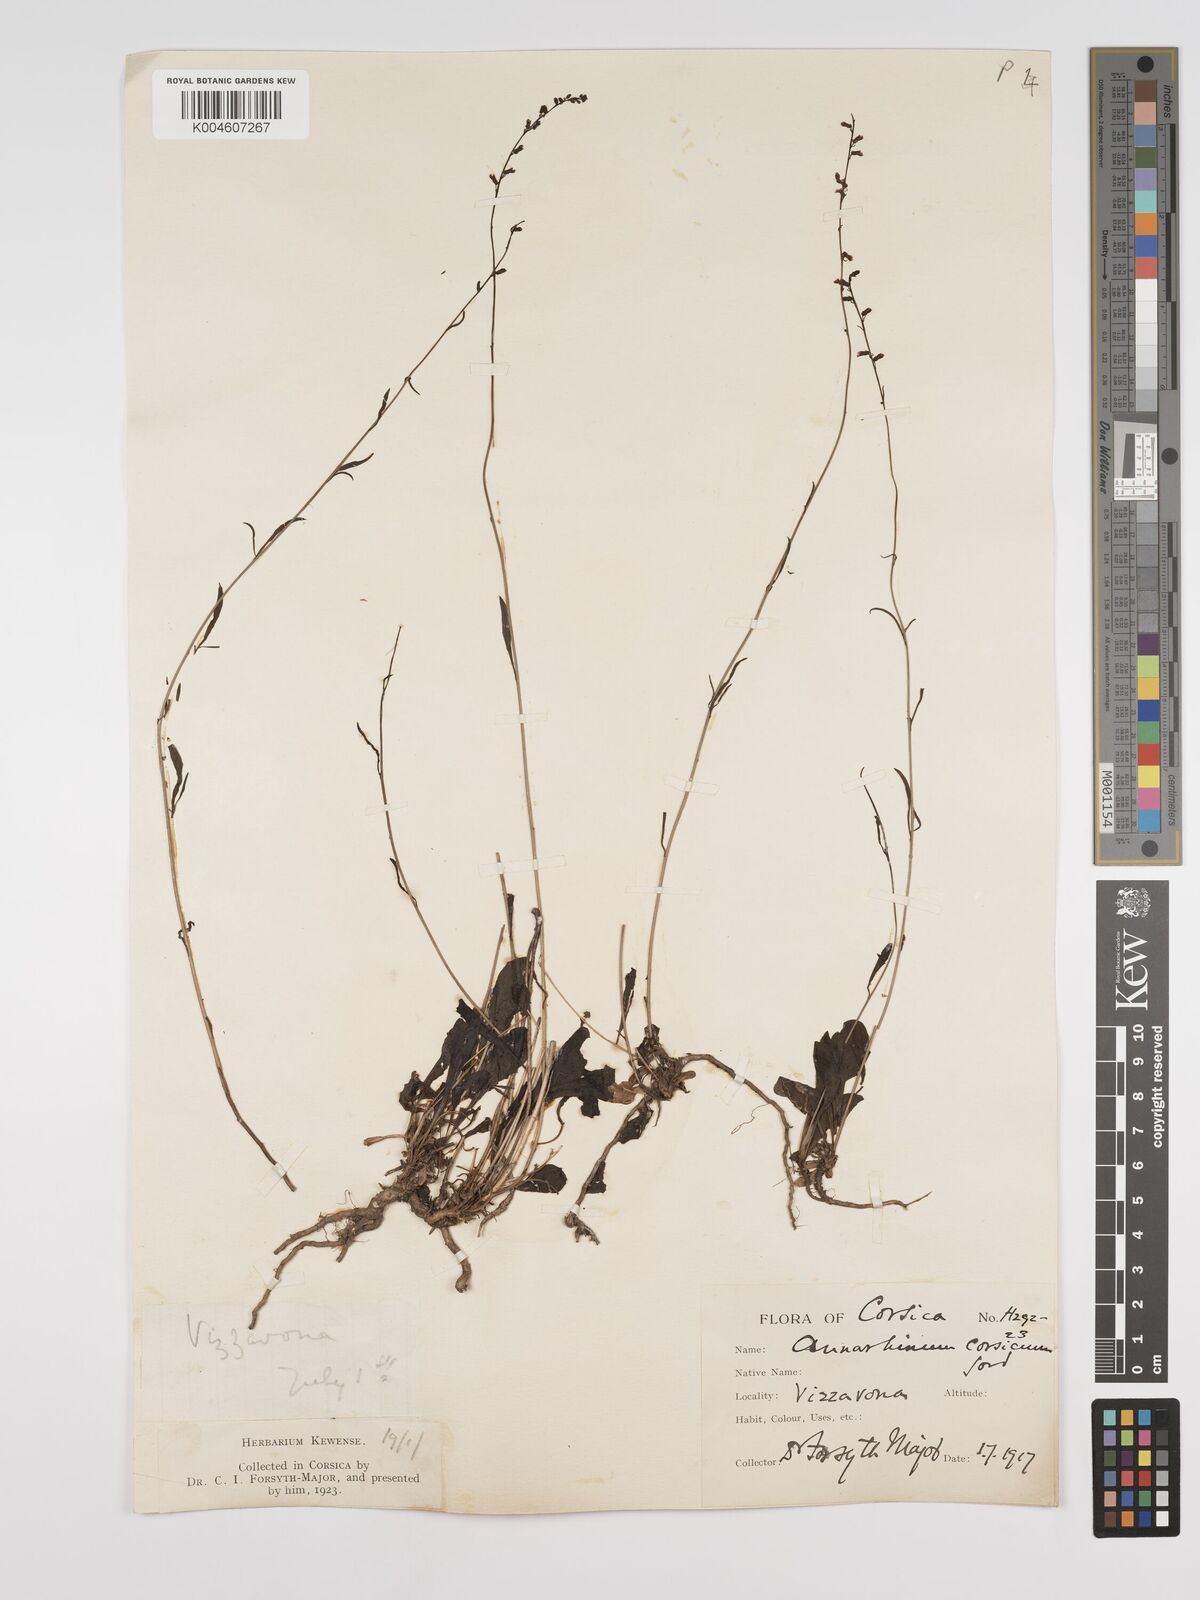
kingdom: Plantae
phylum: Tracheophyta
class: Magnoliopsida
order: Lamiales
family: Plantaginaceae
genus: Anarrhinum
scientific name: Anarrhinum corsicum
